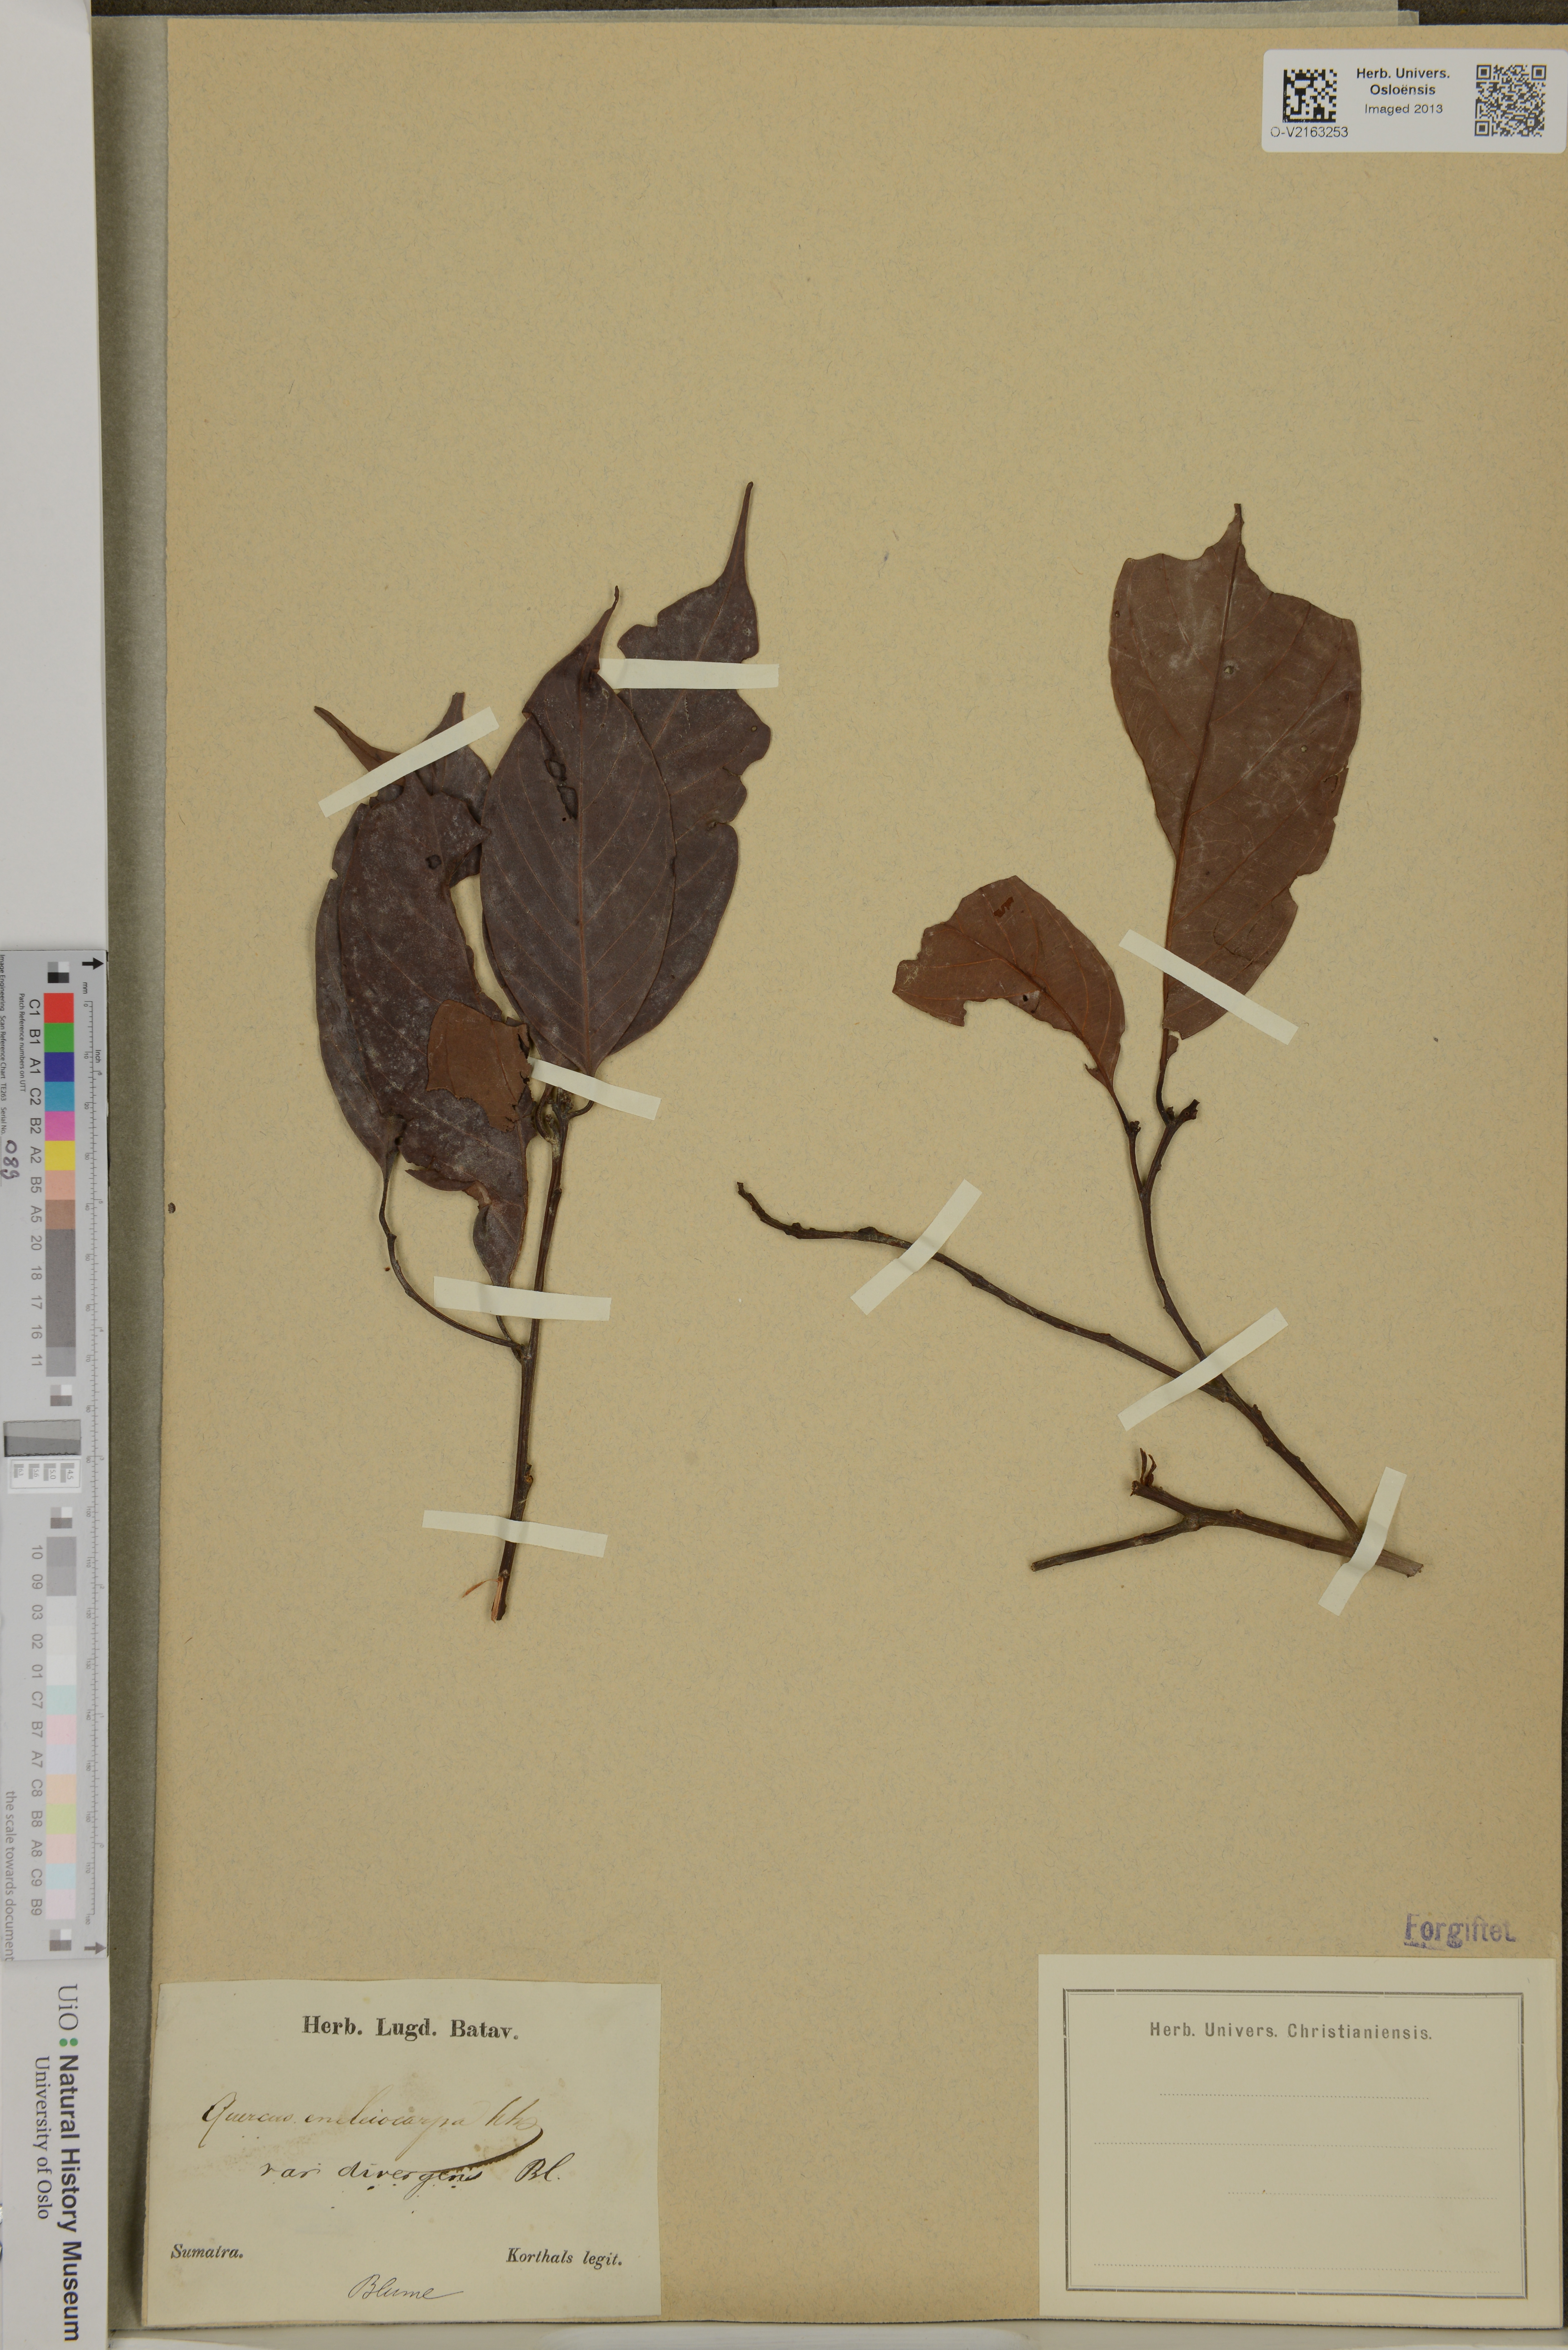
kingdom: Plantae
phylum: Tracheophyta
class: Magnoliopsida
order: Fagales
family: Fagaceae
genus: Lithocarpus
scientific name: Lithocarpus encleisocarpus
